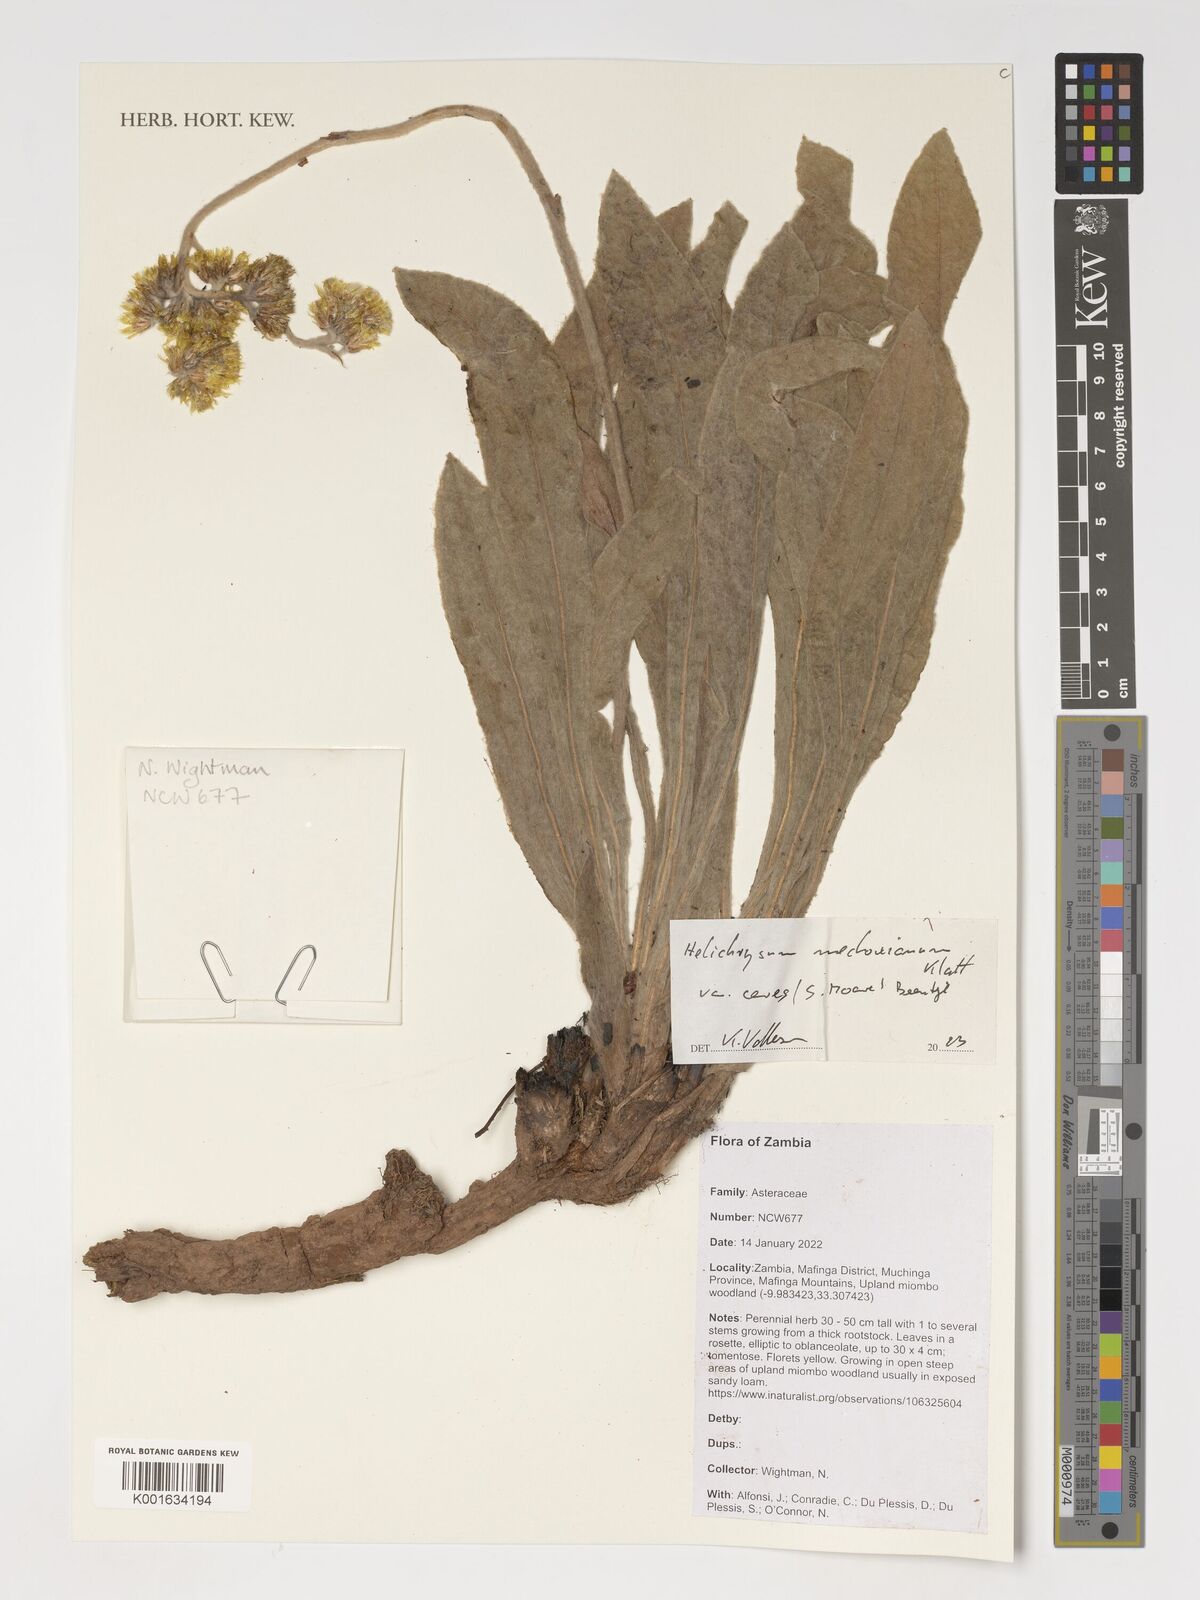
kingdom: Plantae
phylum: Tracheophyta
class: Magnoliopsida
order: Asterales
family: Asteraceae
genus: Helichrysum
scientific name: Helichrysum mechowianum
